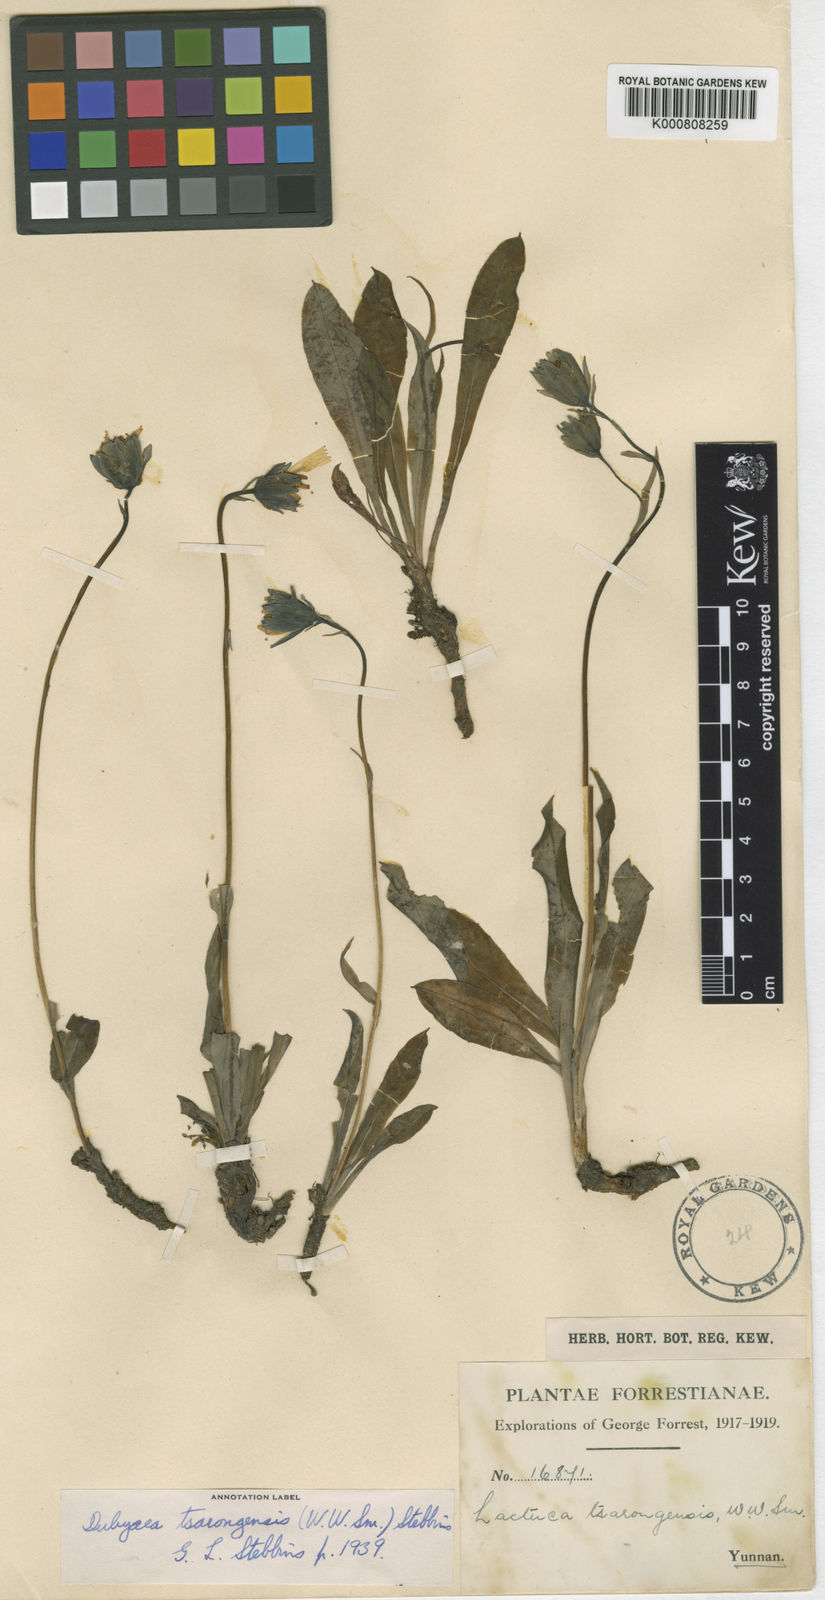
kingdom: Plantae
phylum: Tracheophyta
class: Magnoliopsida
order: Asterales
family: Asteraceae
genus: Dubyaea
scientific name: Dubyaea tsarongensis
